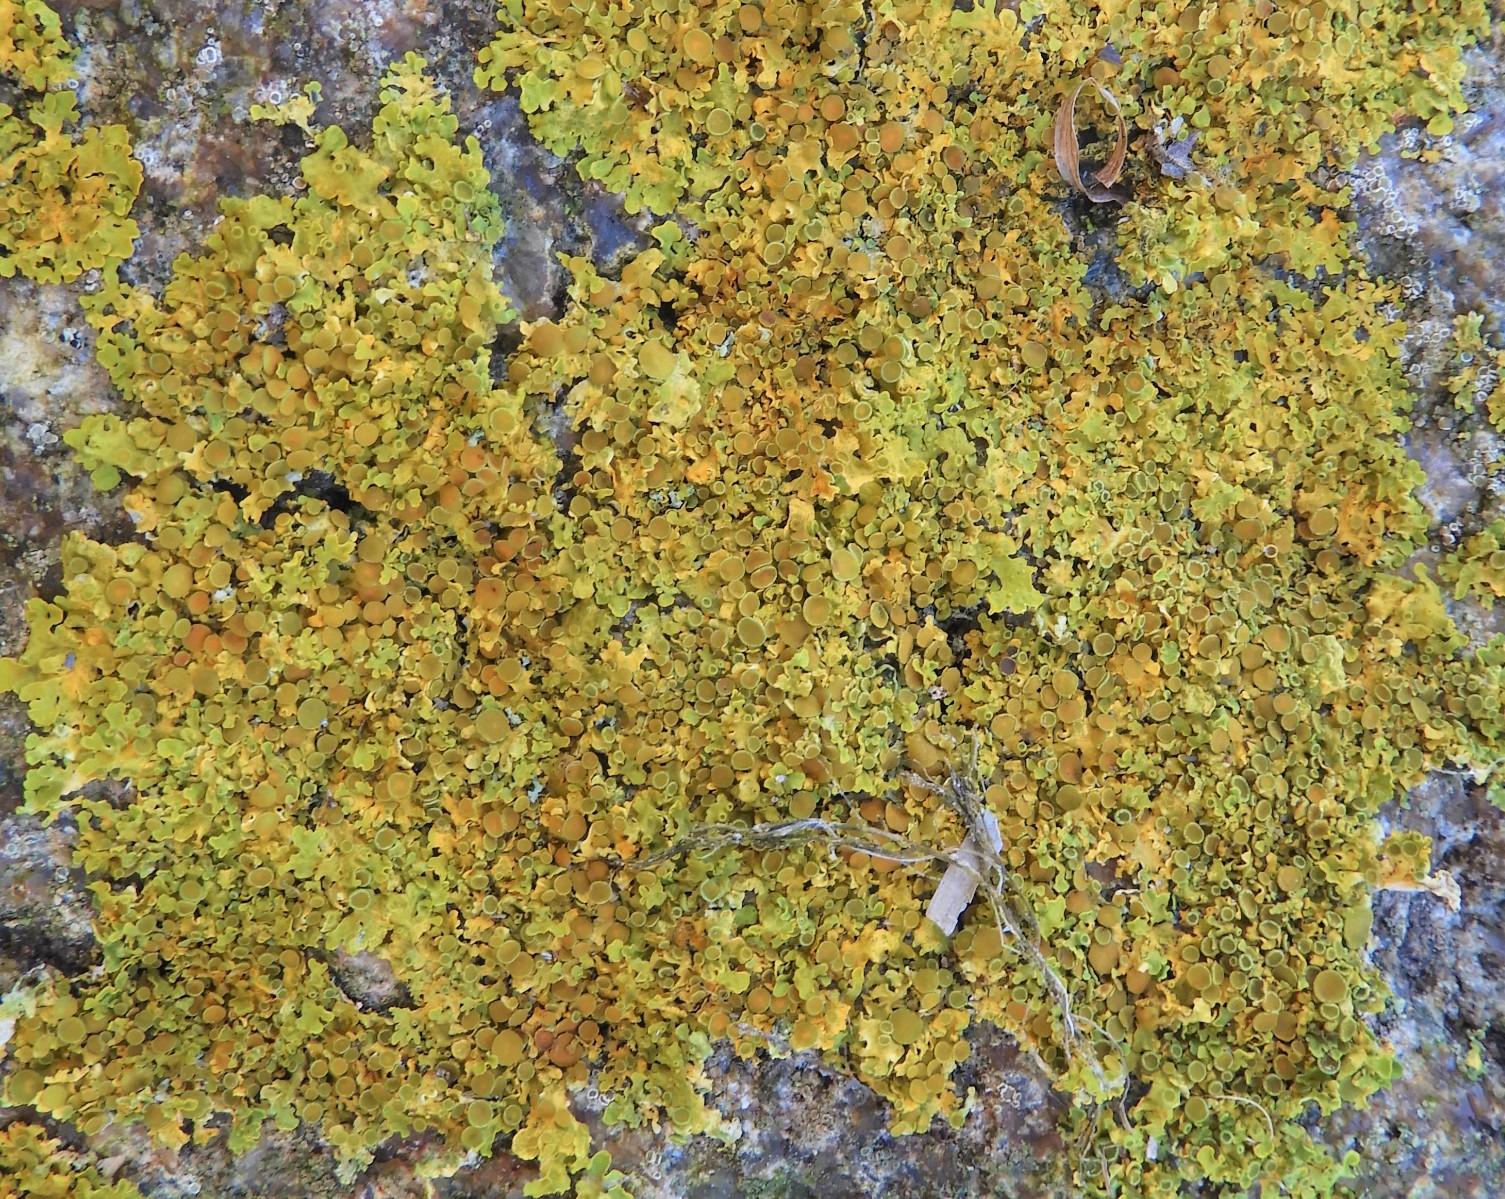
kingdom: Fungi
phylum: Ascomycota
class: Lecanoromycetes
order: Teloschistales
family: Teloschistaceae
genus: Xanthoria
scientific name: Xanthoria parietina
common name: almindelig væggelav
